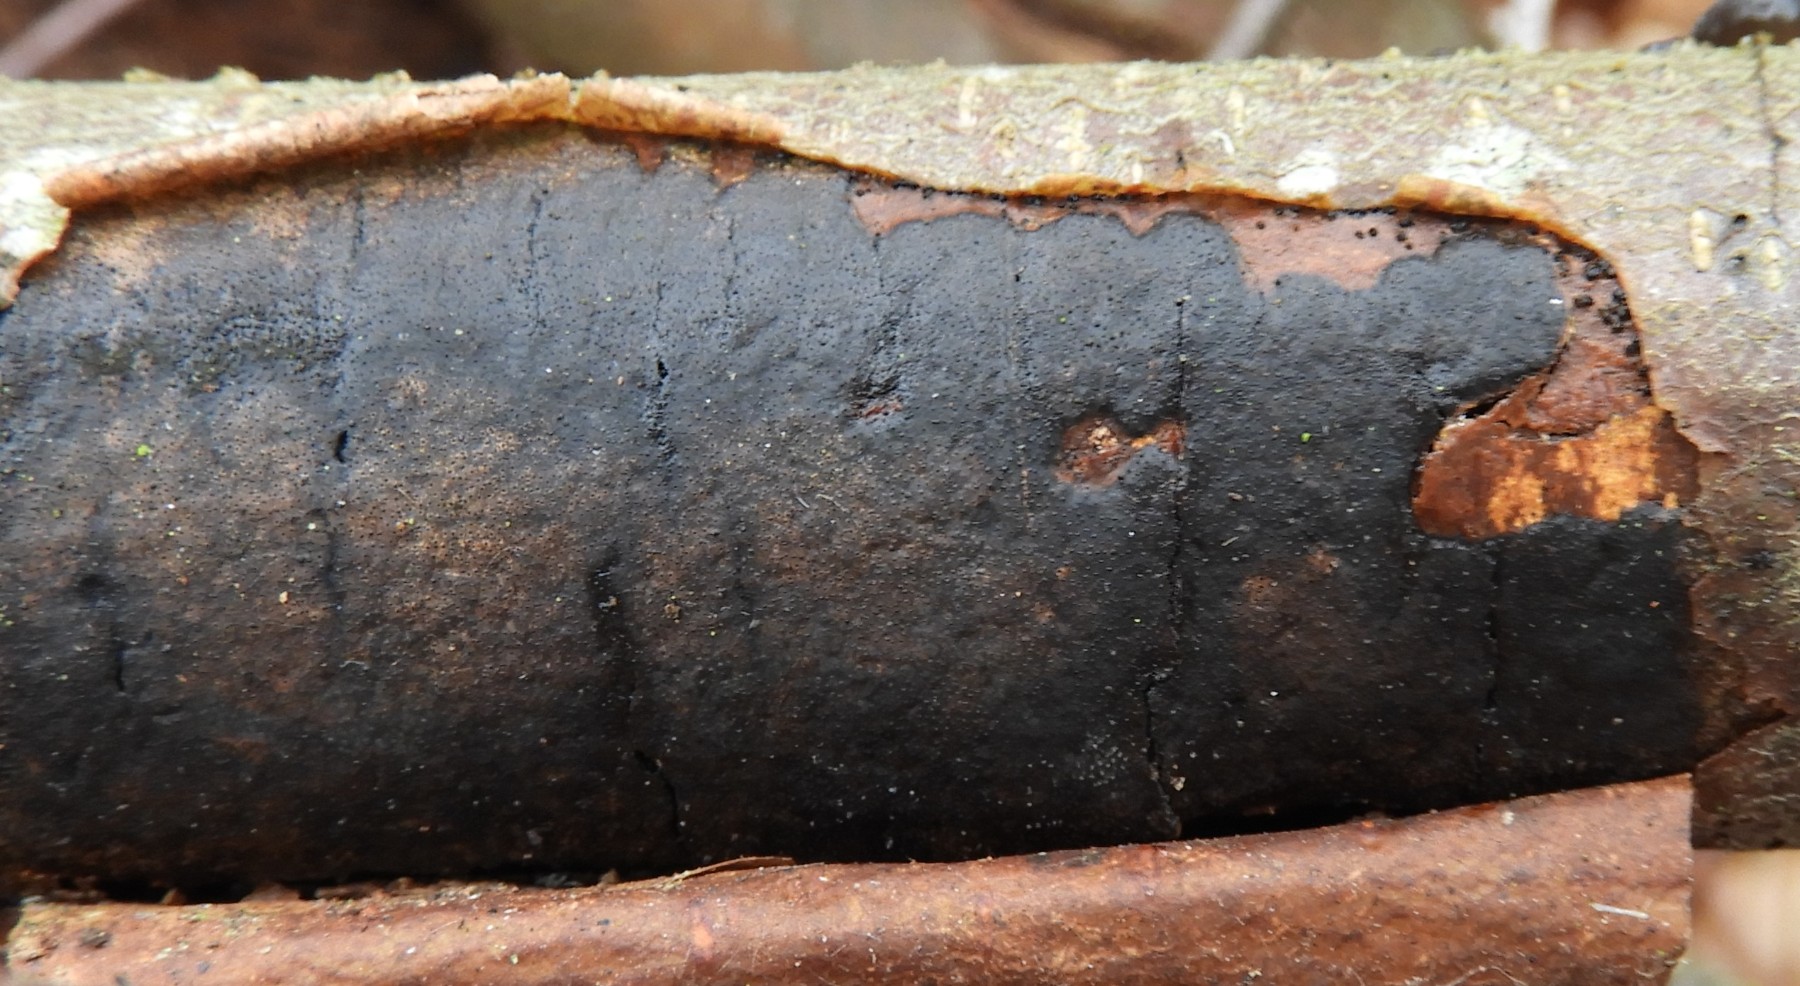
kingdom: Fungi
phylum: Ascomycota
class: Sordariomycetes
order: Xylariales
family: Diatrypaceae
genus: Diatrype
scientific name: Diatrype decorticata
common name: barksprænger-kulskorpe
